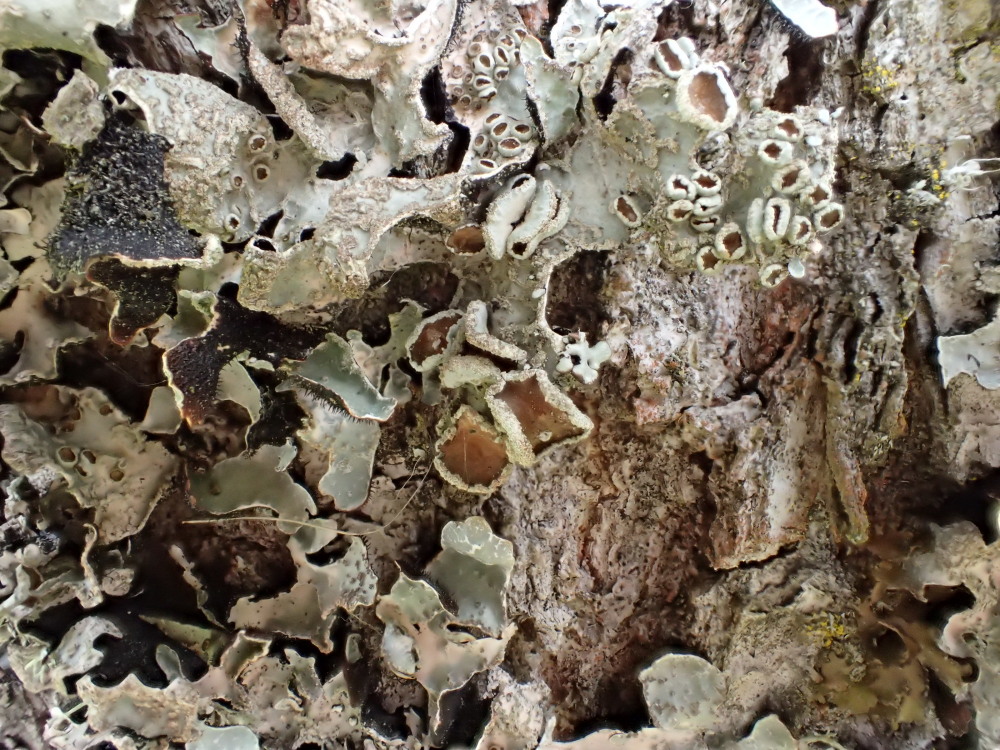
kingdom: Fungi
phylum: Ascomycota
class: Lecanoromycetes
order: Lecanorales
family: Parmeliaceae
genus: Parmelia
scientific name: Parmelia sulcata
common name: rynket skållav
